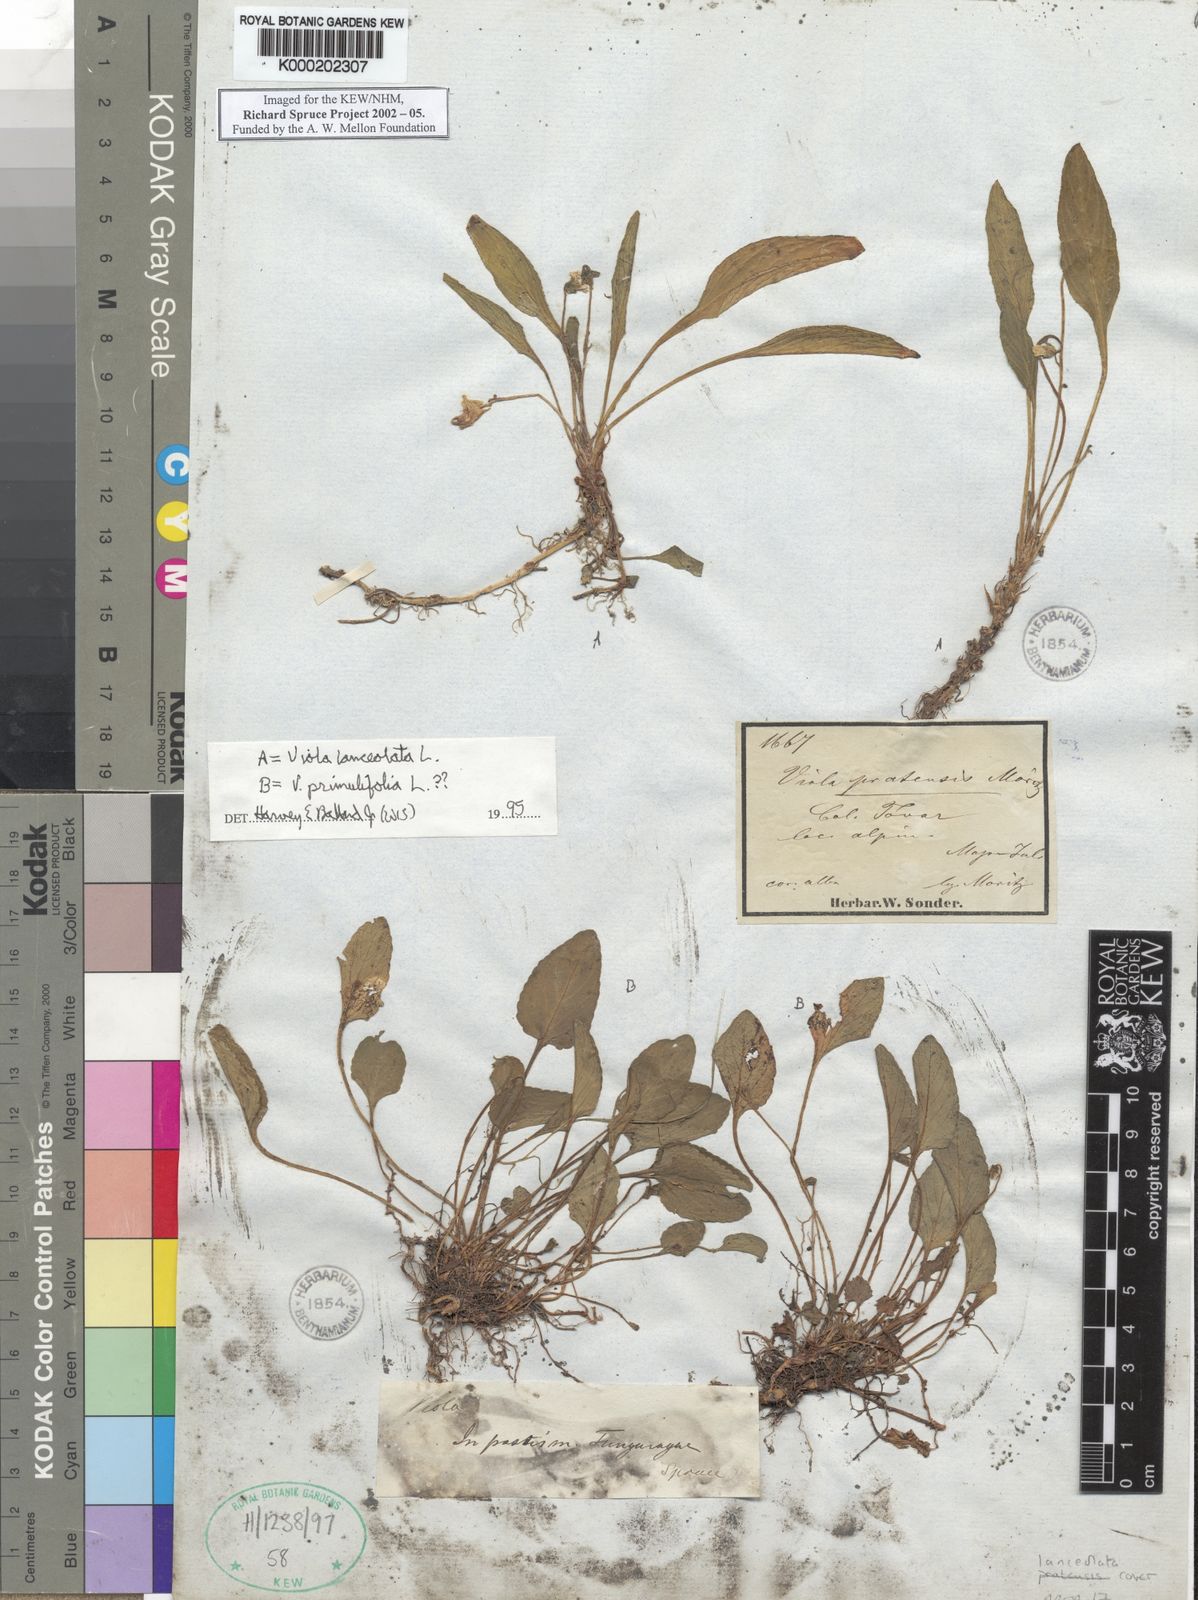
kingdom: Plantae
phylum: Tracheophyta
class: Magnoliopsida
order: Malpighiales
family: Violaceae
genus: Viola
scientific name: Viola primulifolia
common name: Primrose-leaf violet
